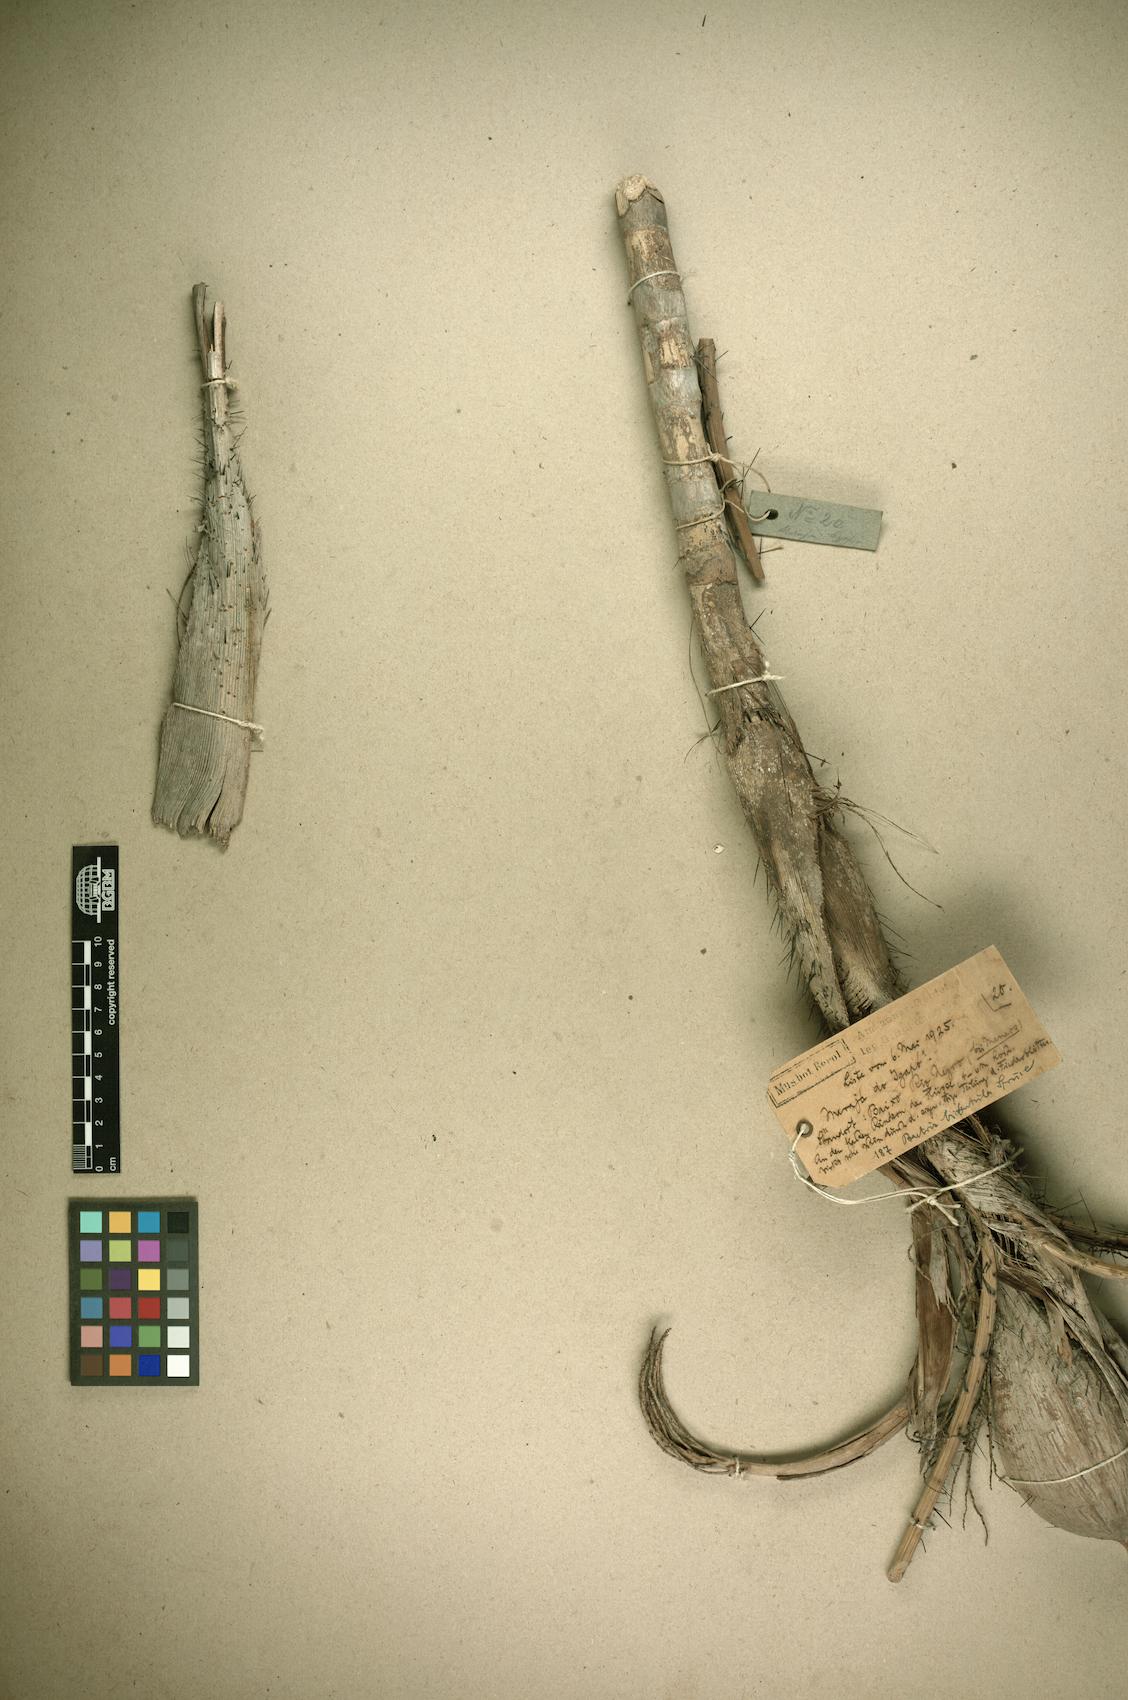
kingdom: Plantae
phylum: Tracheophyta
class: Liliopsida
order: Arecales
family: Arecaceae
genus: Bactris
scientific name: Bactris bidentula
